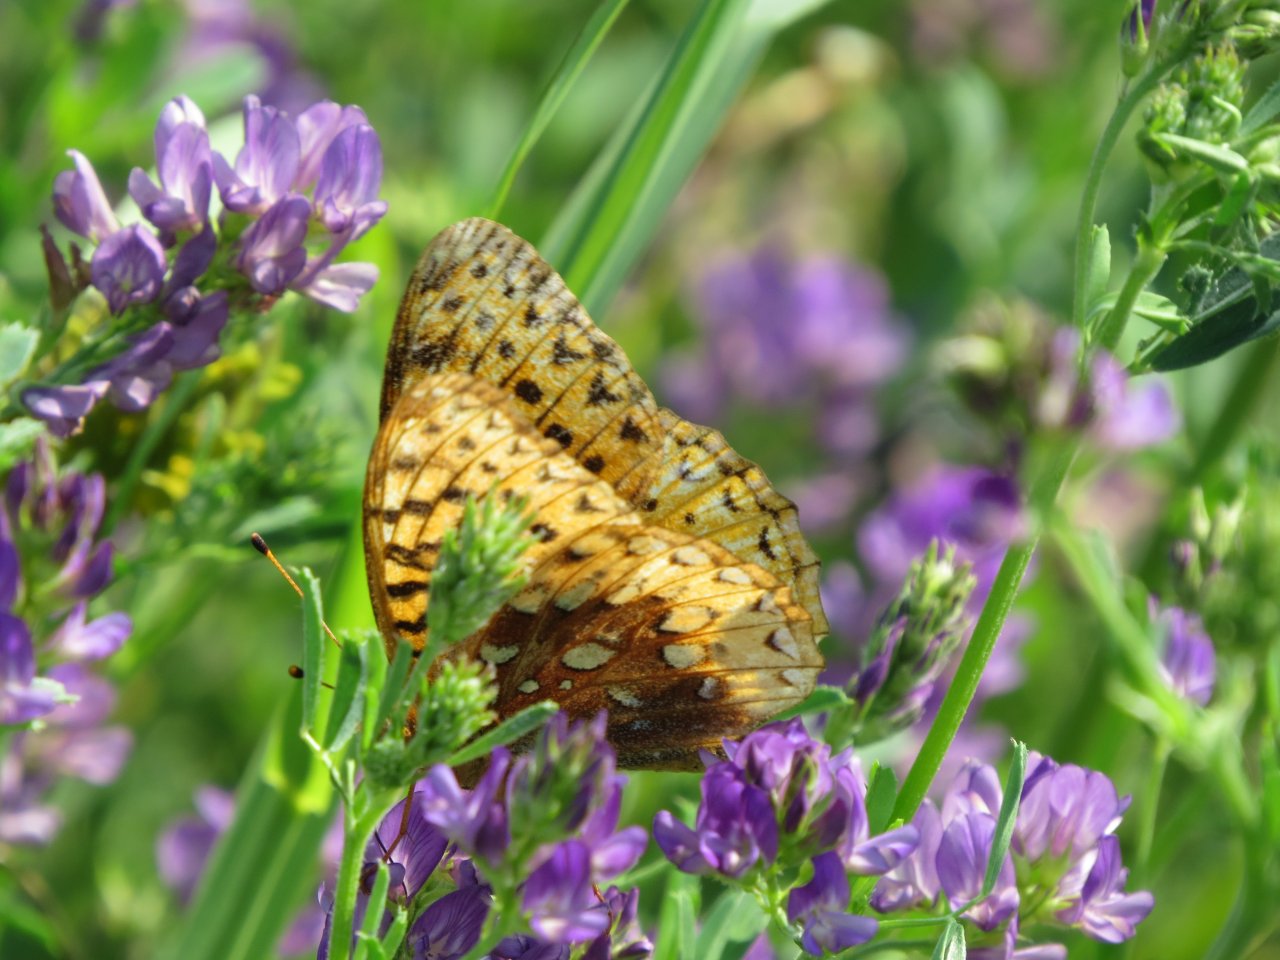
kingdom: Animalia
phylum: Arthropoda
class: Insecta
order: Lepidoptera
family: Nymphalidae
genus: Speyeria
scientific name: Speyeria cybele
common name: Great Spangled Fritillary
